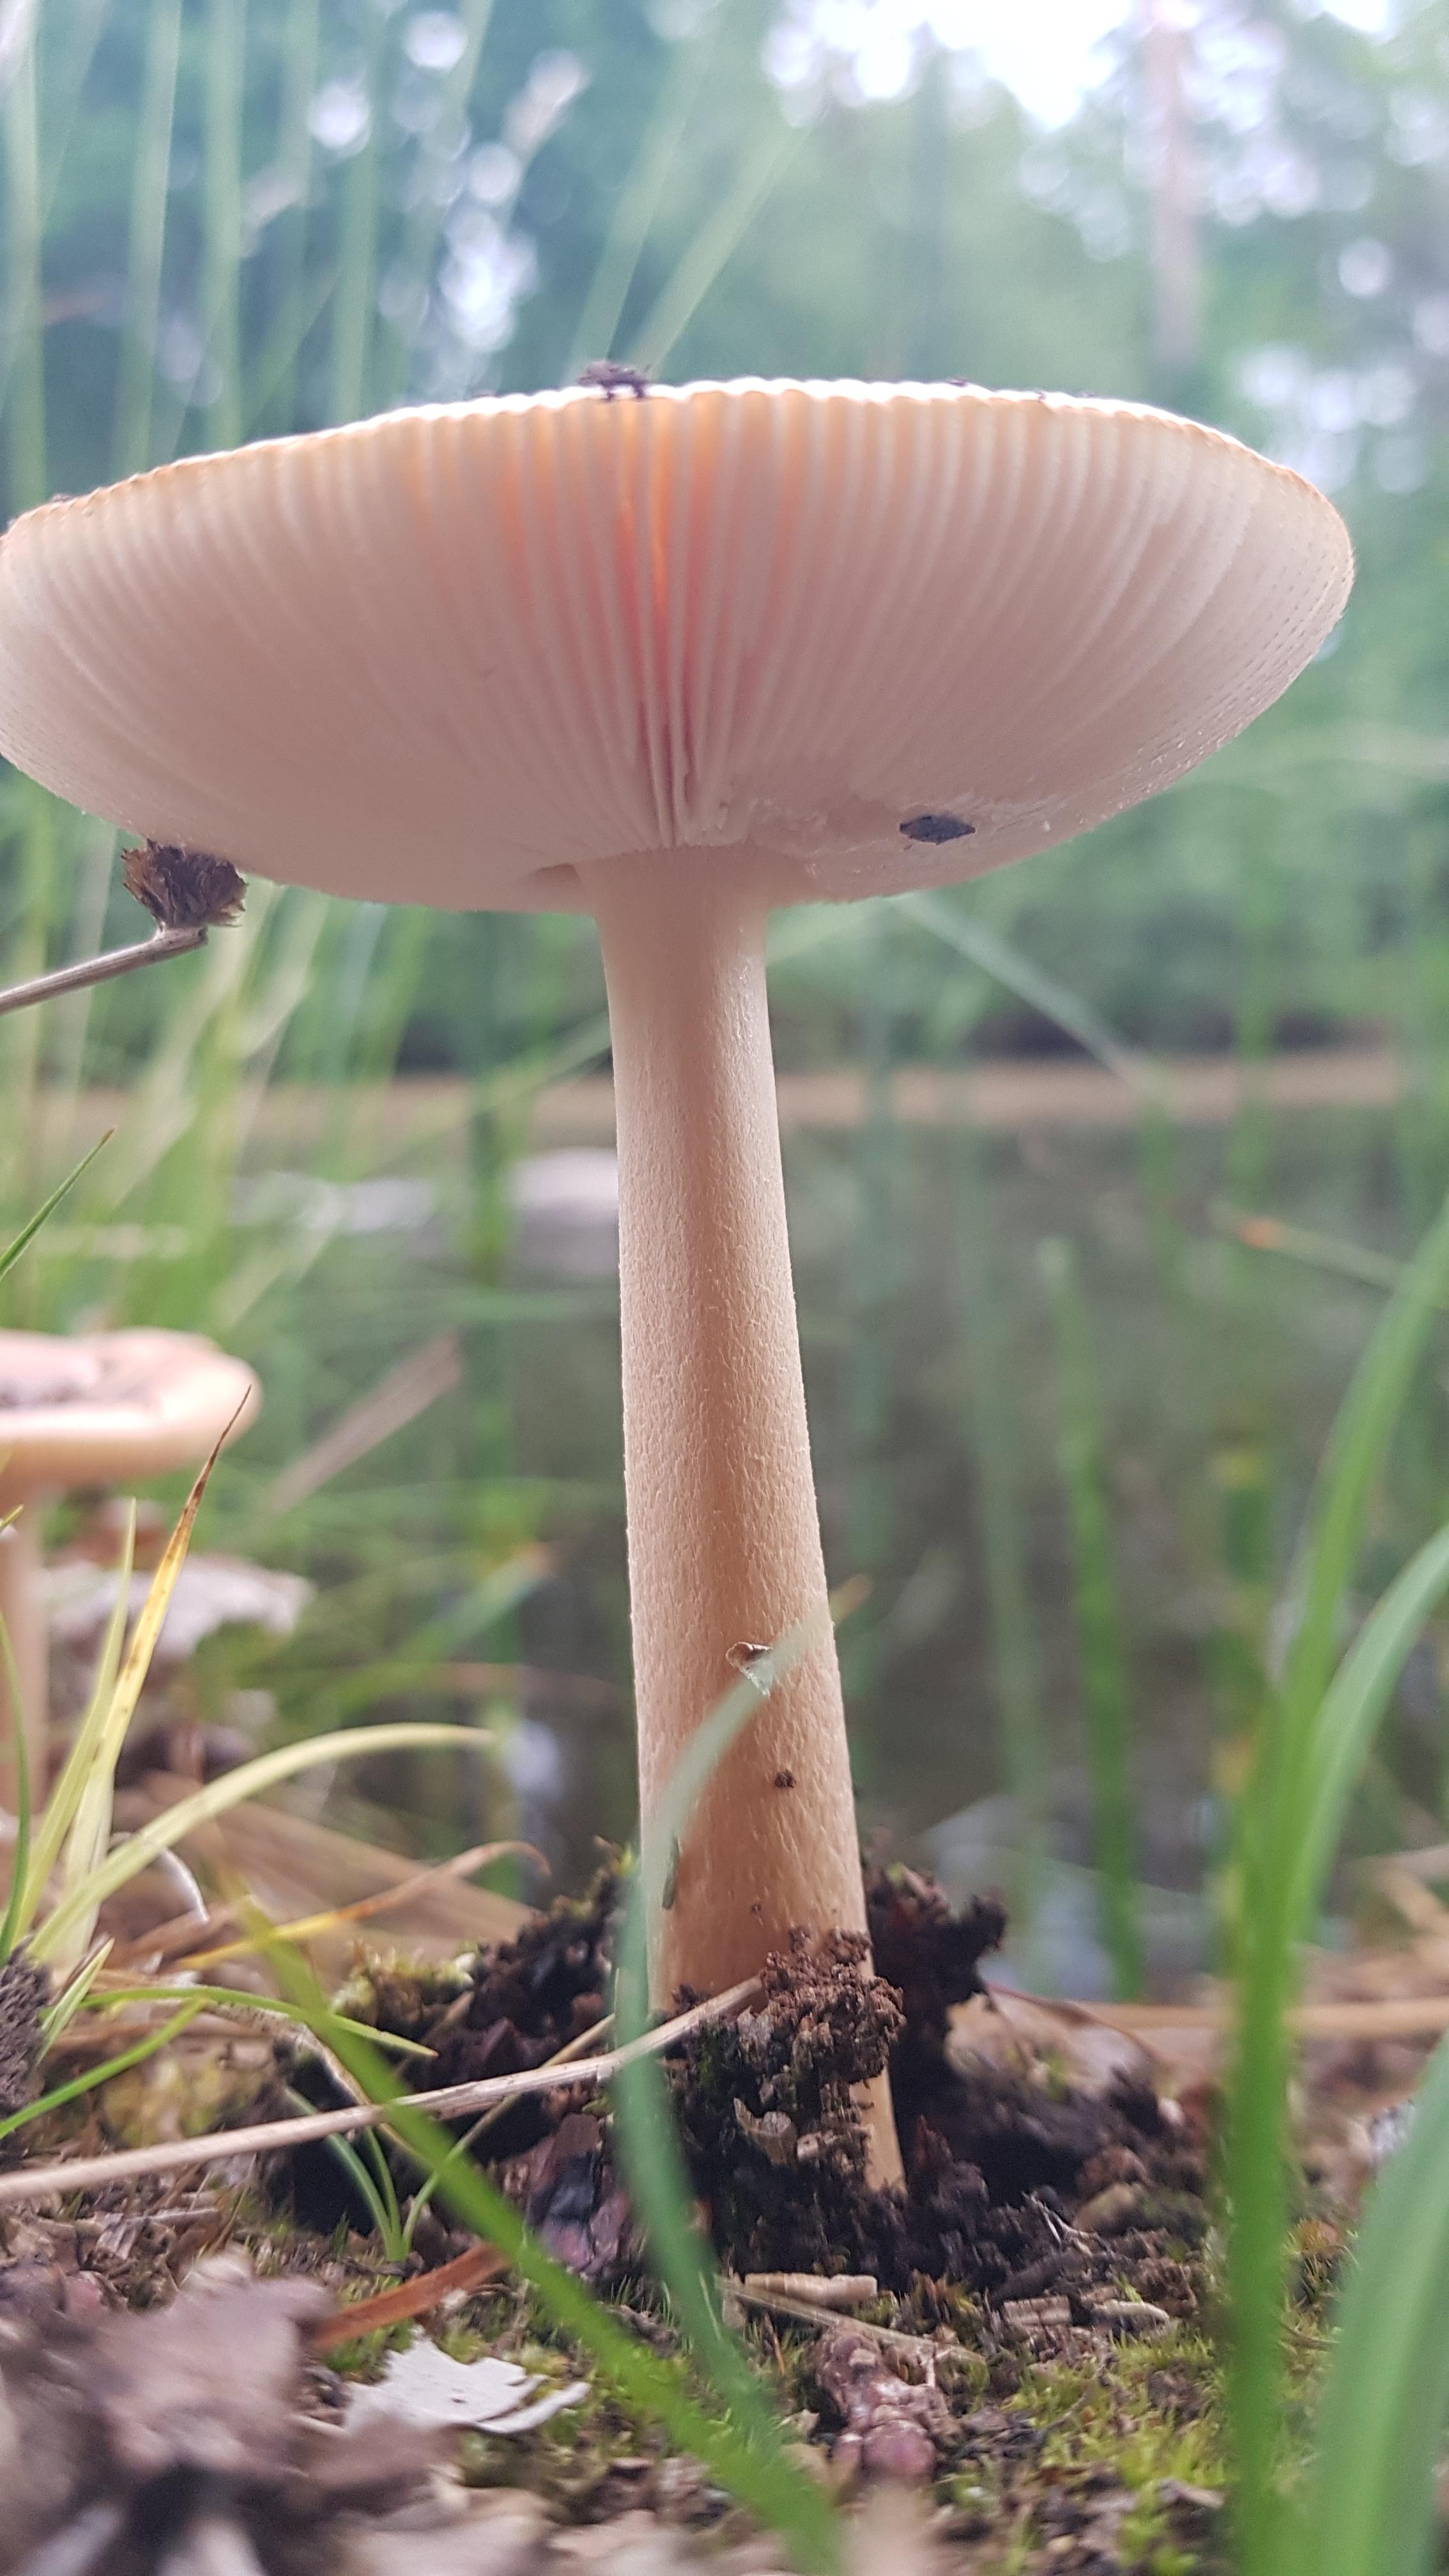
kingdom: Fungi
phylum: Basidiomycota
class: Agaricomycetes
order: Agaricales
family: Amanitaceae
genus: Amanita
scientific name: Amanita fulva
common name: brun kam-fluesvamp
